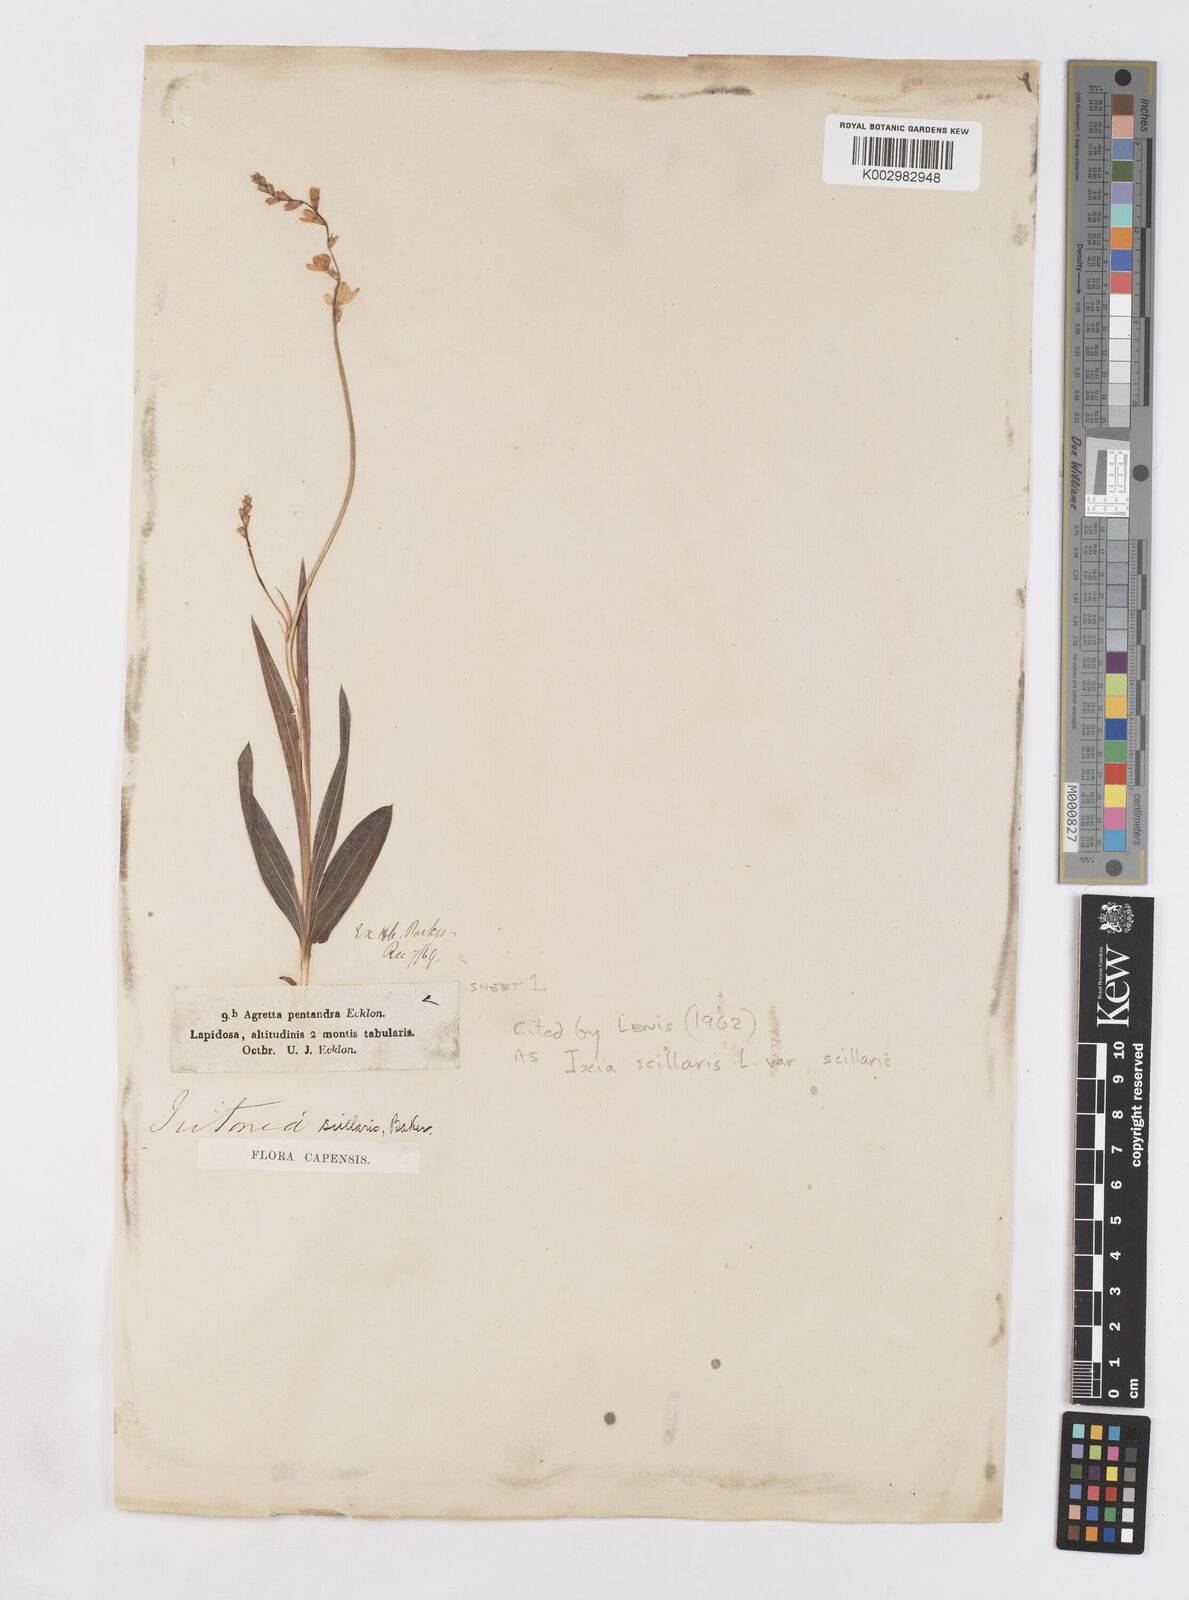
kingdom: Plantae
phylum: Tracheophyta
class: Liliopsida
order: Asparagales
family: Iridaceae
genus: Ixia
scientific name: Ixia scillaris
